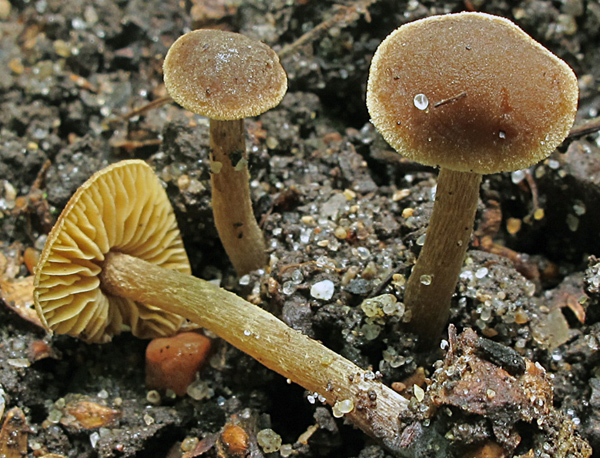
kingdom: Fungi
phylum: Basidiomycota
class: Agaricomycetes
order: Agaricales
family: Hymenogastraceae
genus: Alnicola
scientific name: Alnicola xanthophylla
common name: gulbladet knaphat
